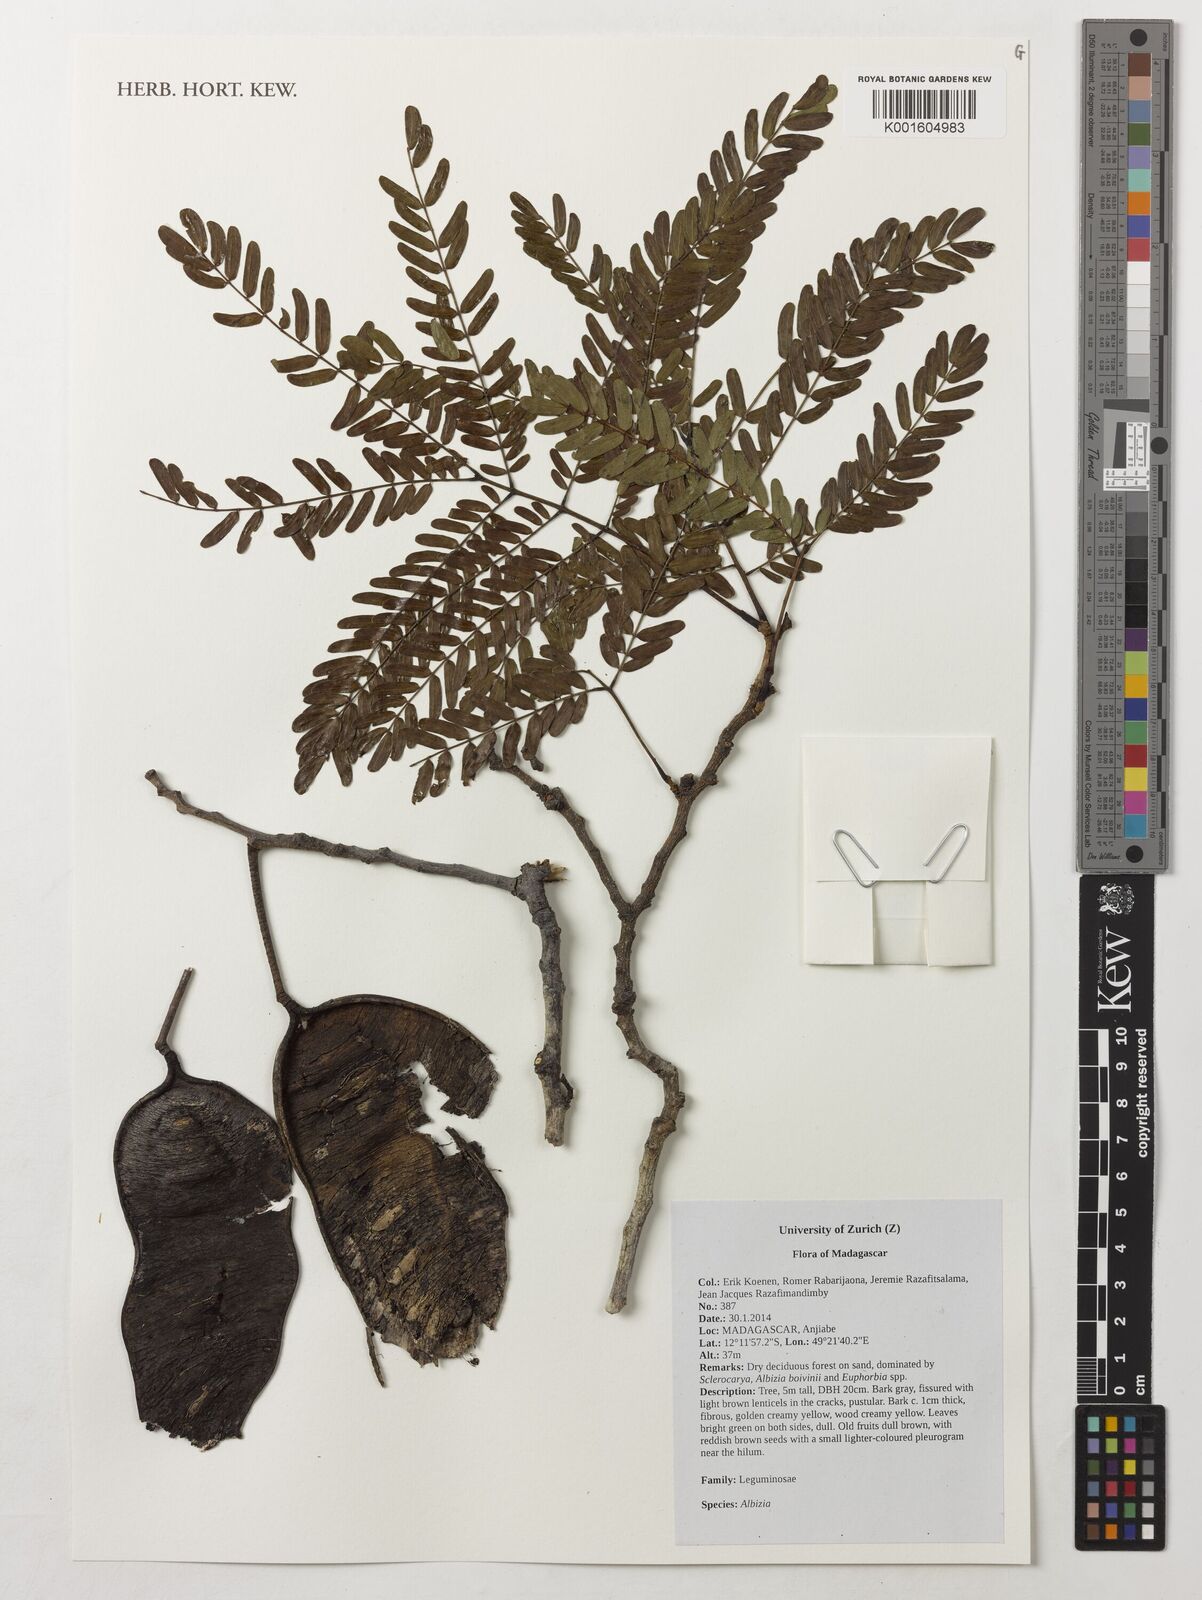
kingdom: Plantae
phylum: Tracheophyta
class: Magnoliopsida
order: Fabales
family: Fabaceae
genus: Albizia
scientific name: Albizia
